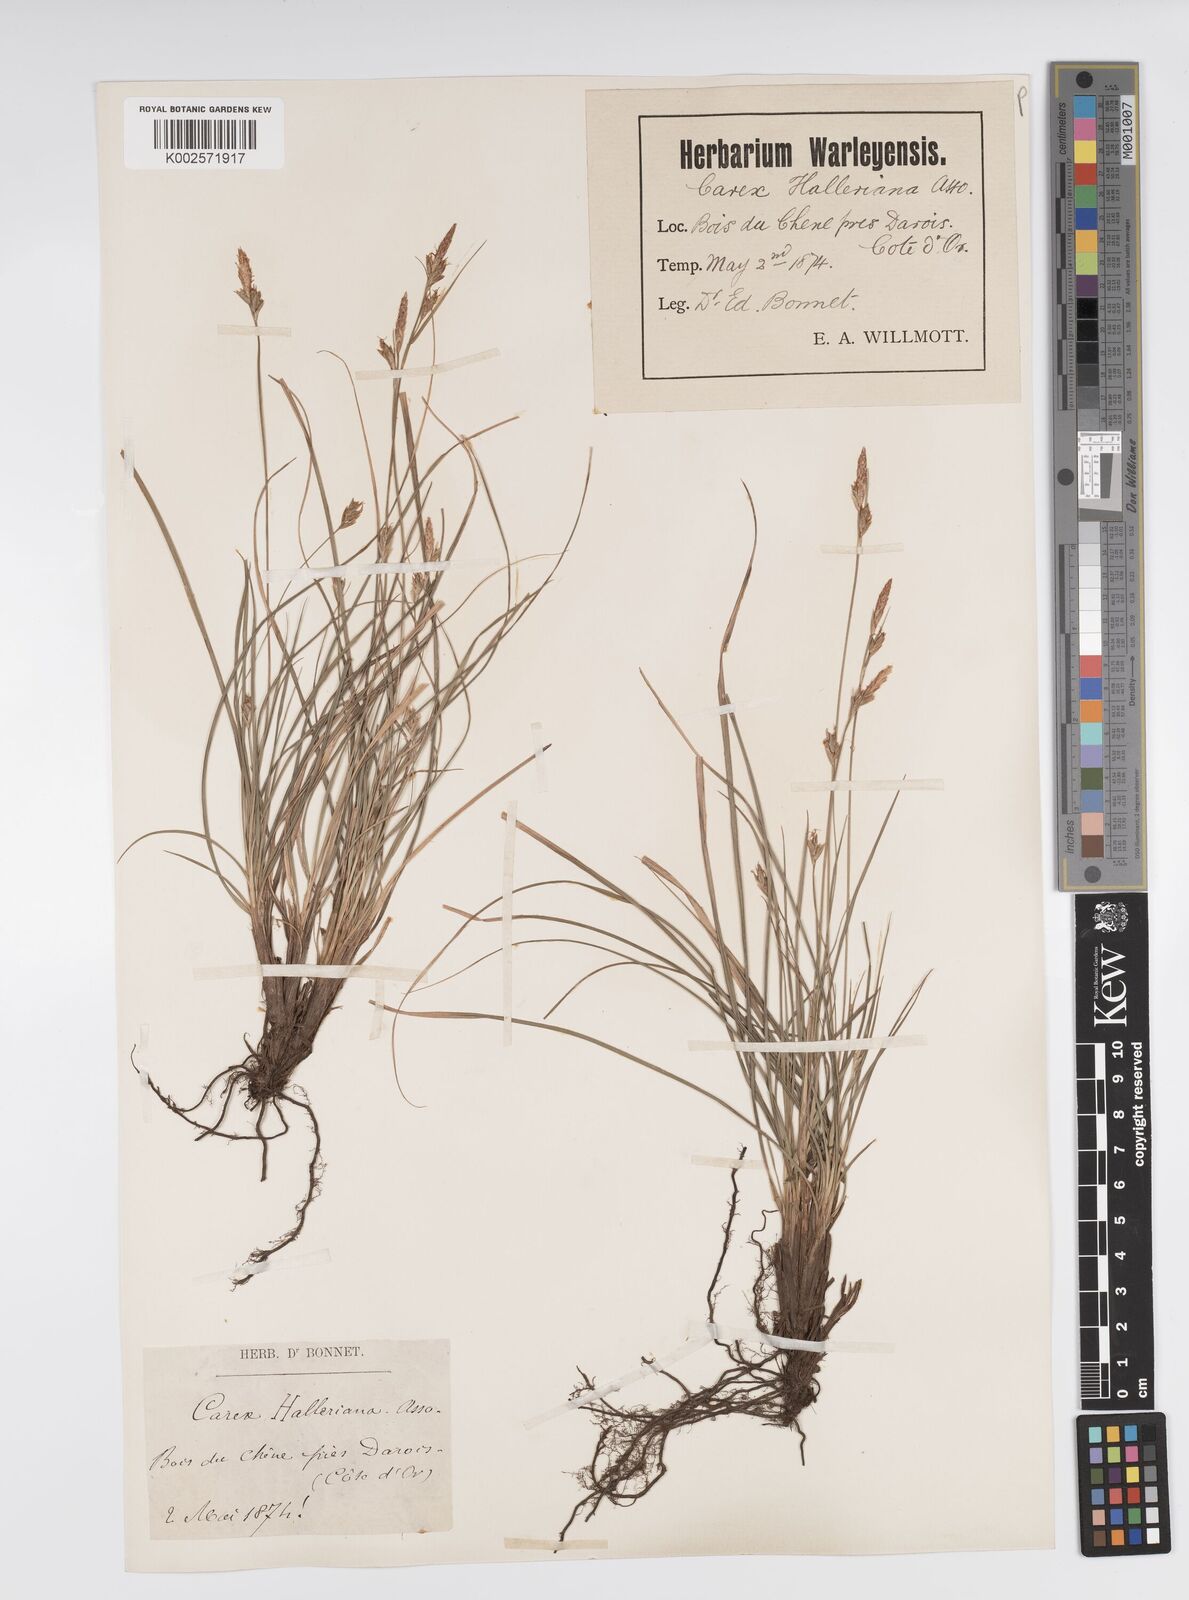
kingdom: Plantae
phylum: Tracheophyta
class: Liliopsida
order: Poales
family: Cyperaceae
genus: Carex
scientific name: Carex halleriana
